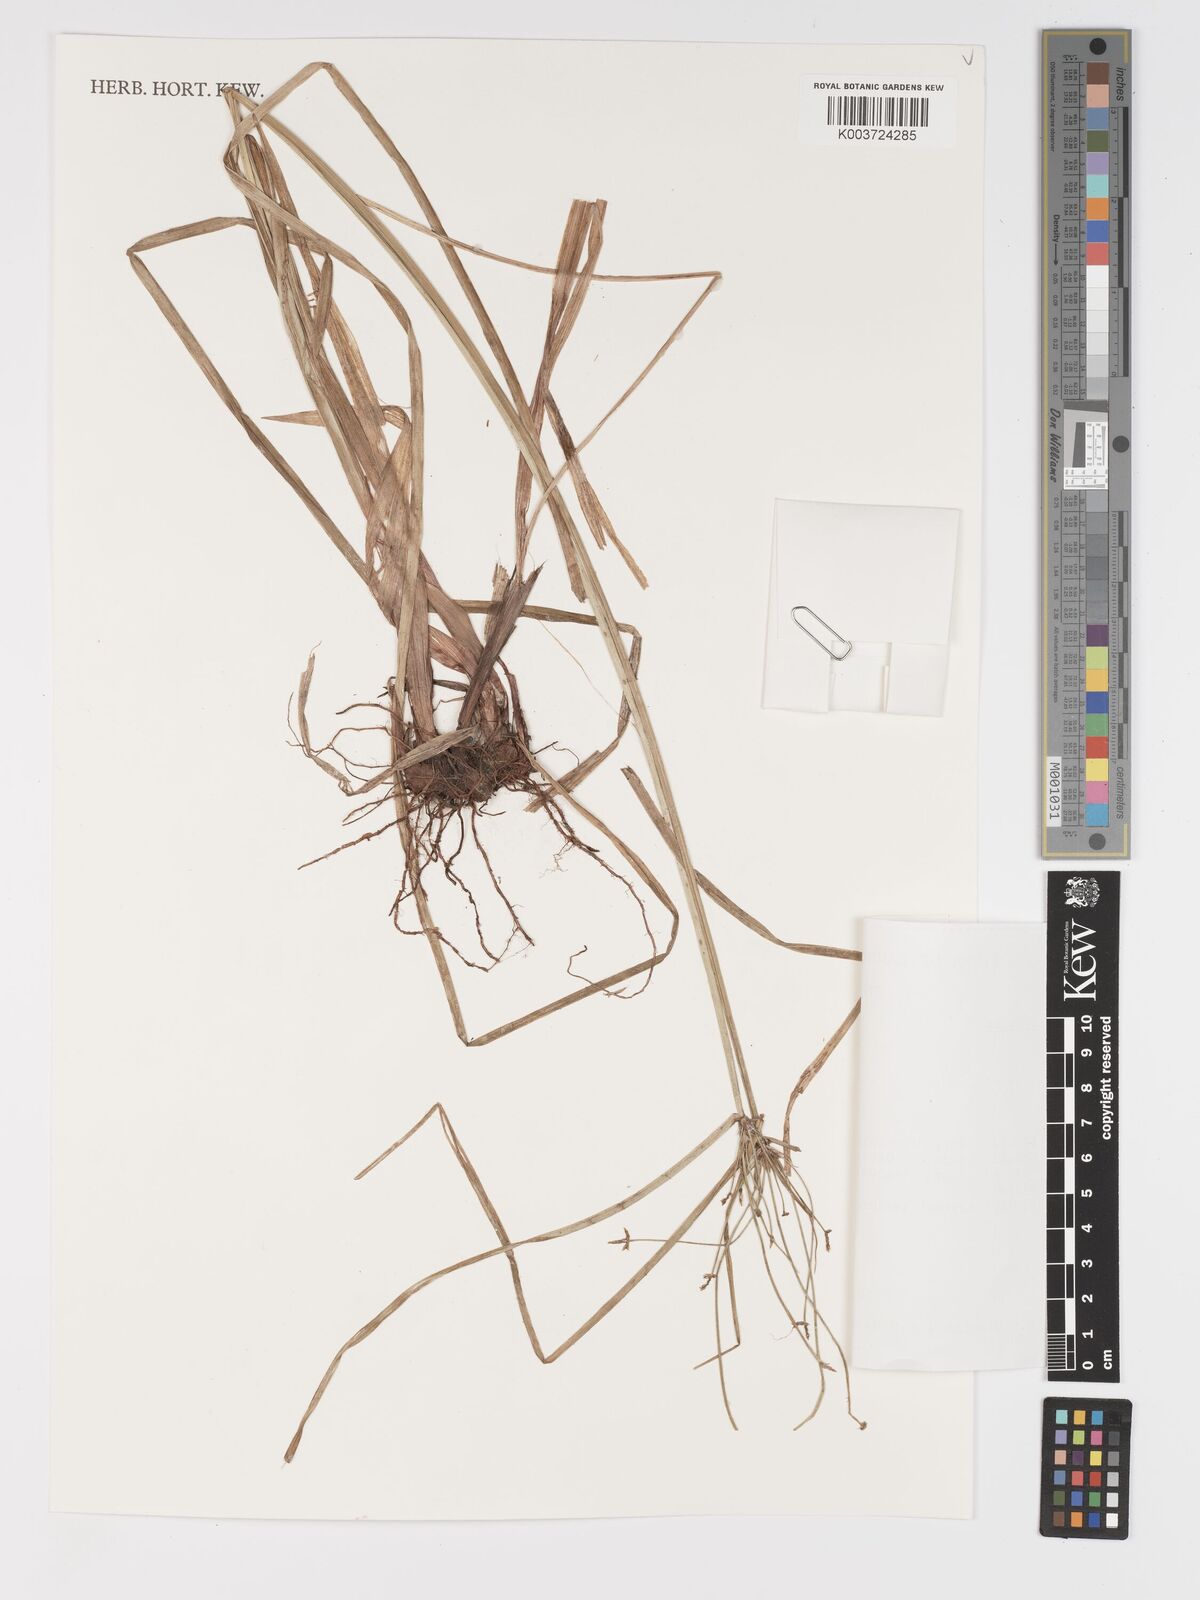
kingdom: Plantae
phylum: Tracheophyta
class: Liliopsida
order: Poales
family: Cyperaceae
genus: Cyperus
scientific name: Cyperus
